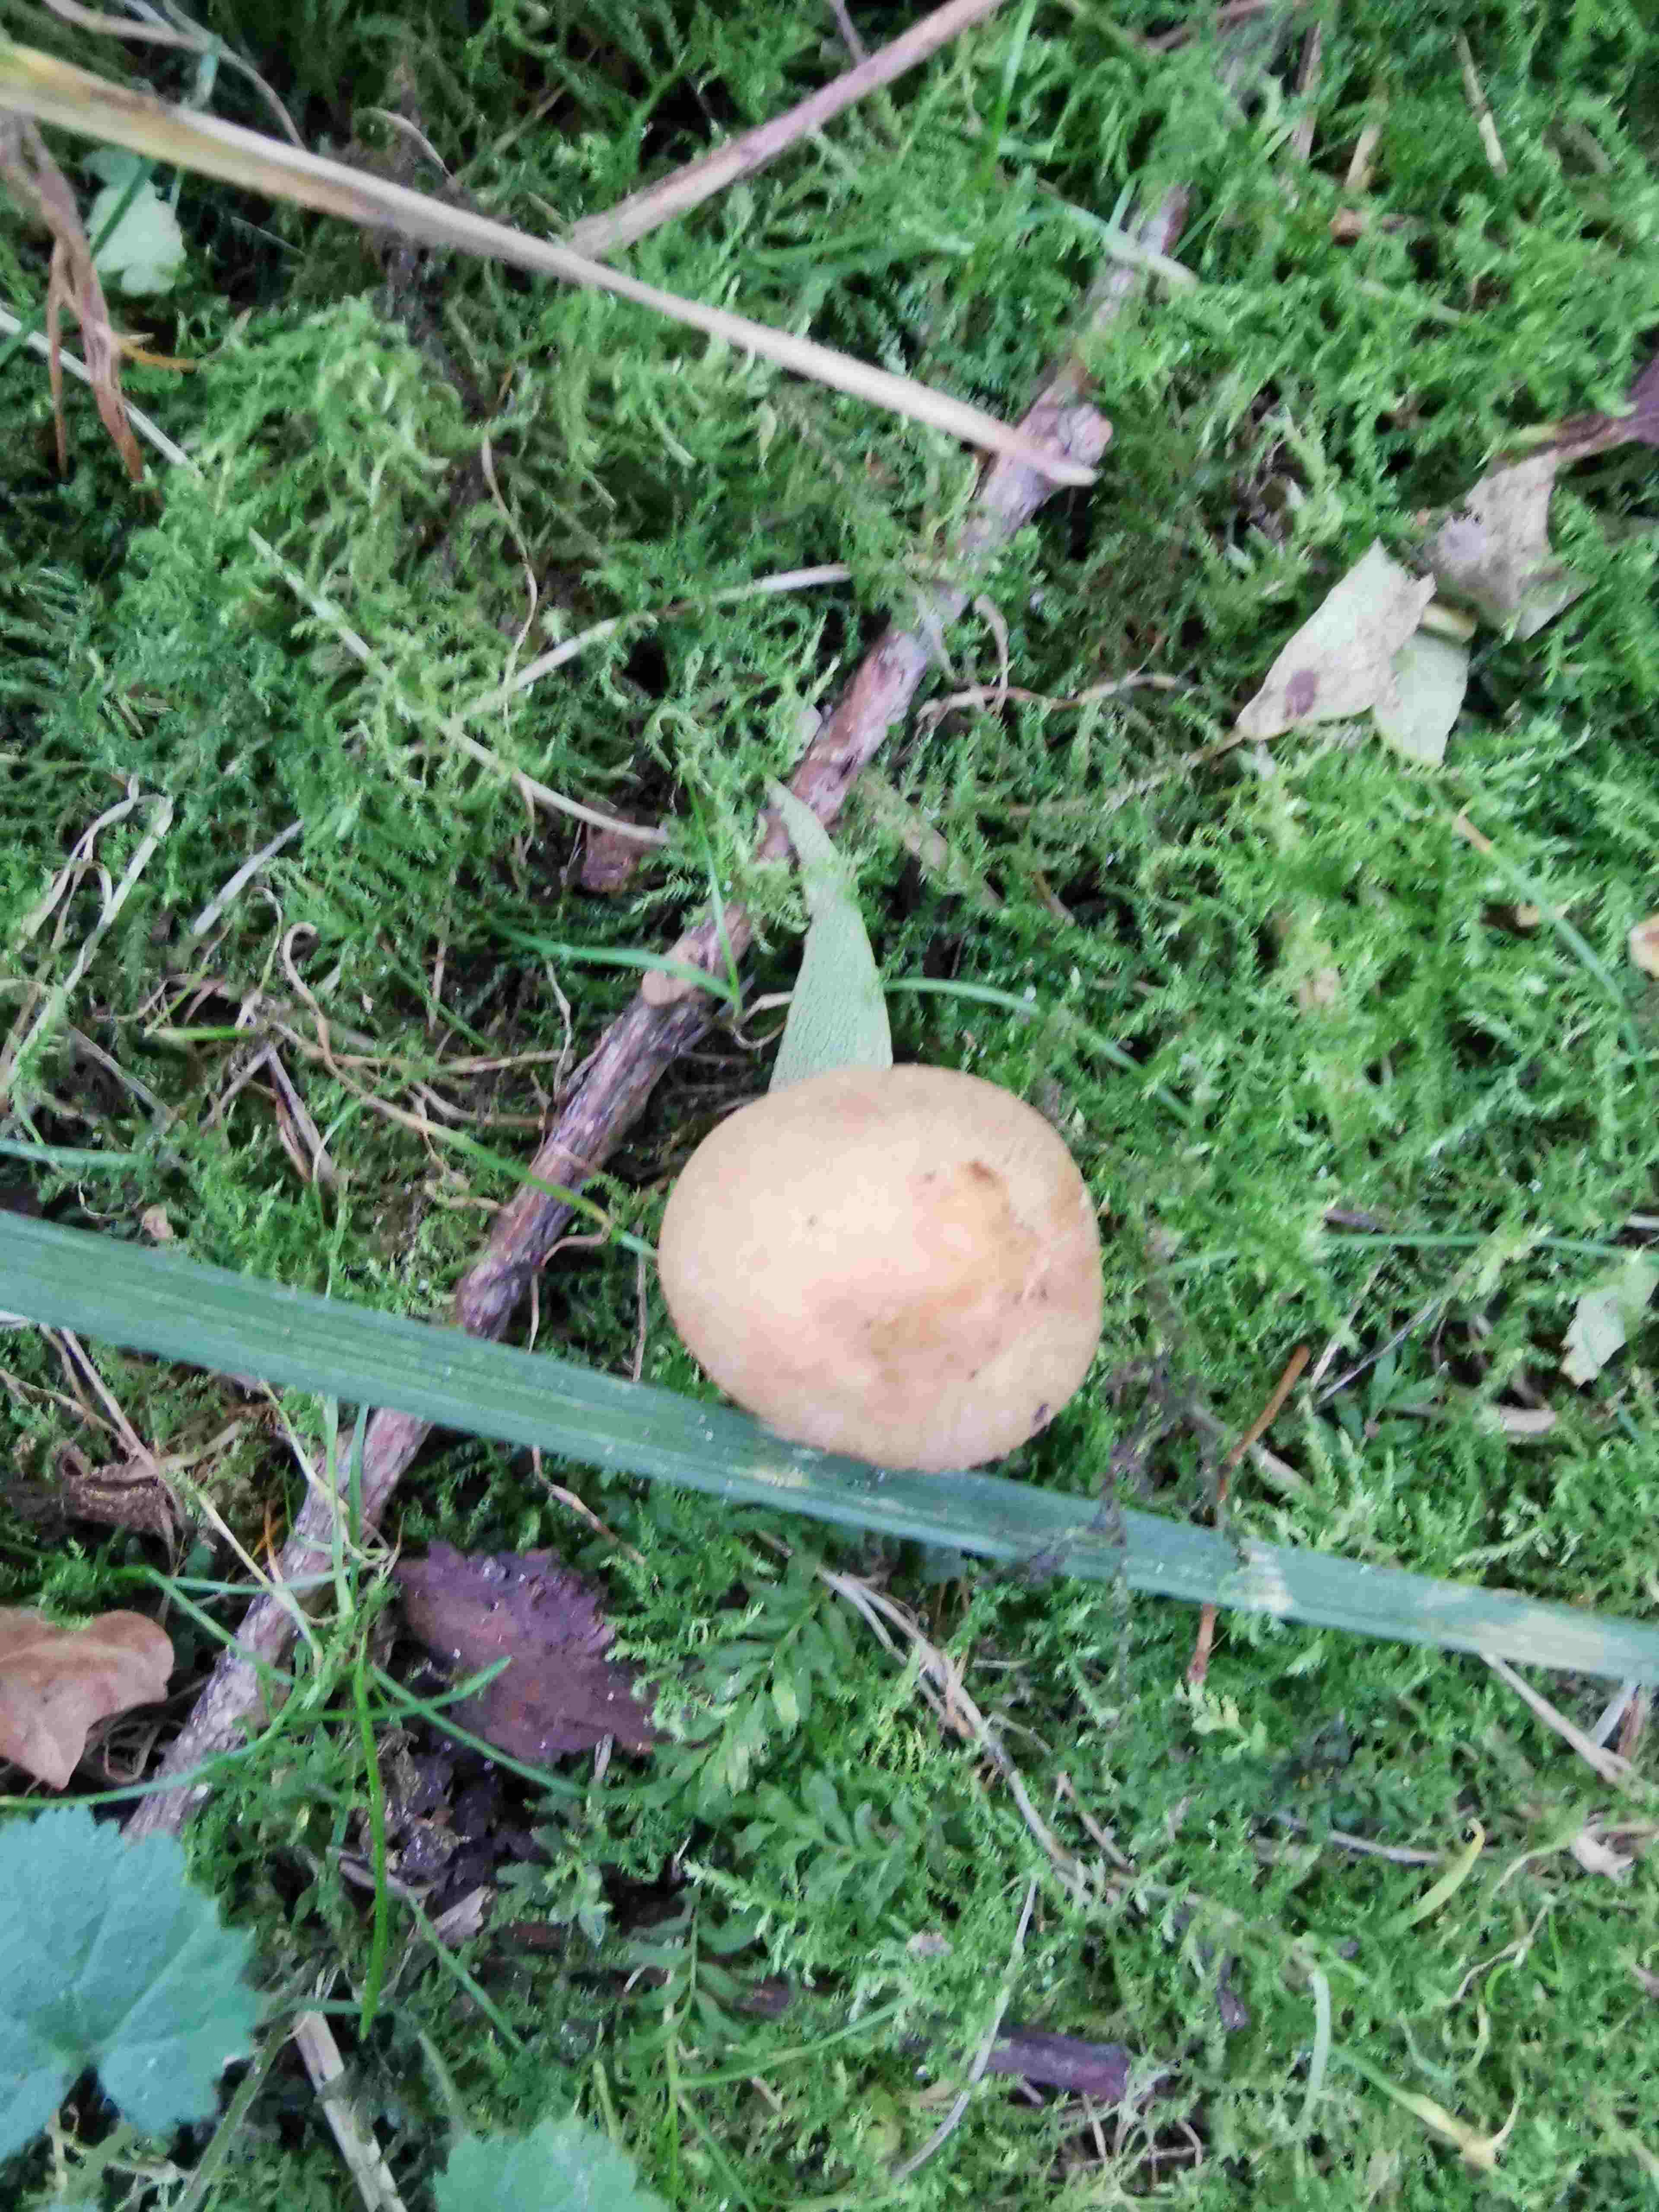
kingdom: Fungi
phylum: Basidiomycota
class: Agaricomycetes
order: Agaricales
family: Psathyrellaceae
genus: Candolleomyces
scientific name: Candolleomyces candolleanus
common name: Candolles mørkhat
